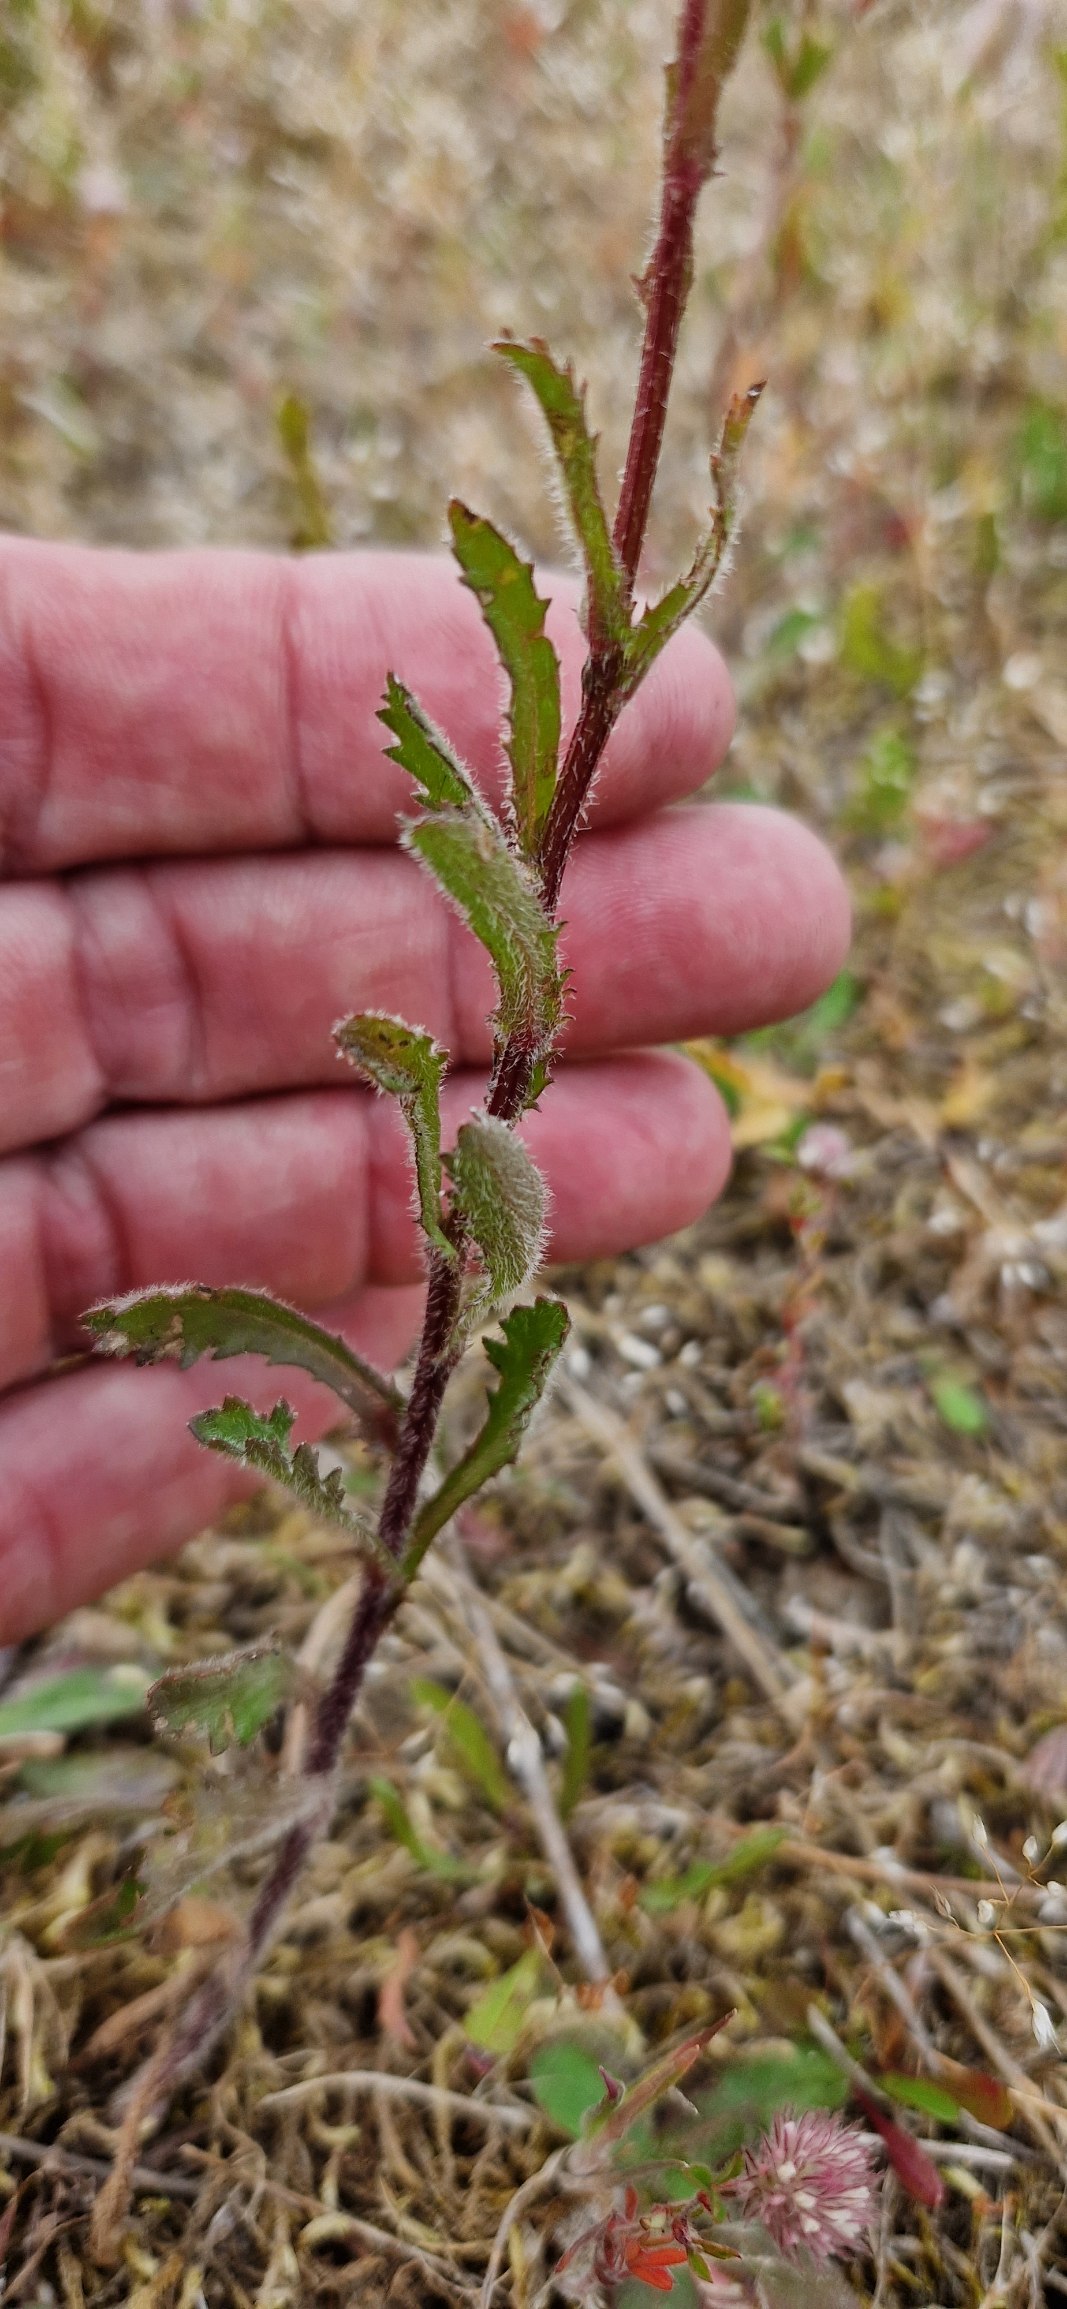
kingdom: Plantae
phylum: Tracheophyta
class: Magnoliopsida
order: Asterales
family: Asteraceae
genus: Leucanthemum
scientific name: Leucanthemum vulgare
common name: Hvid okseøje
